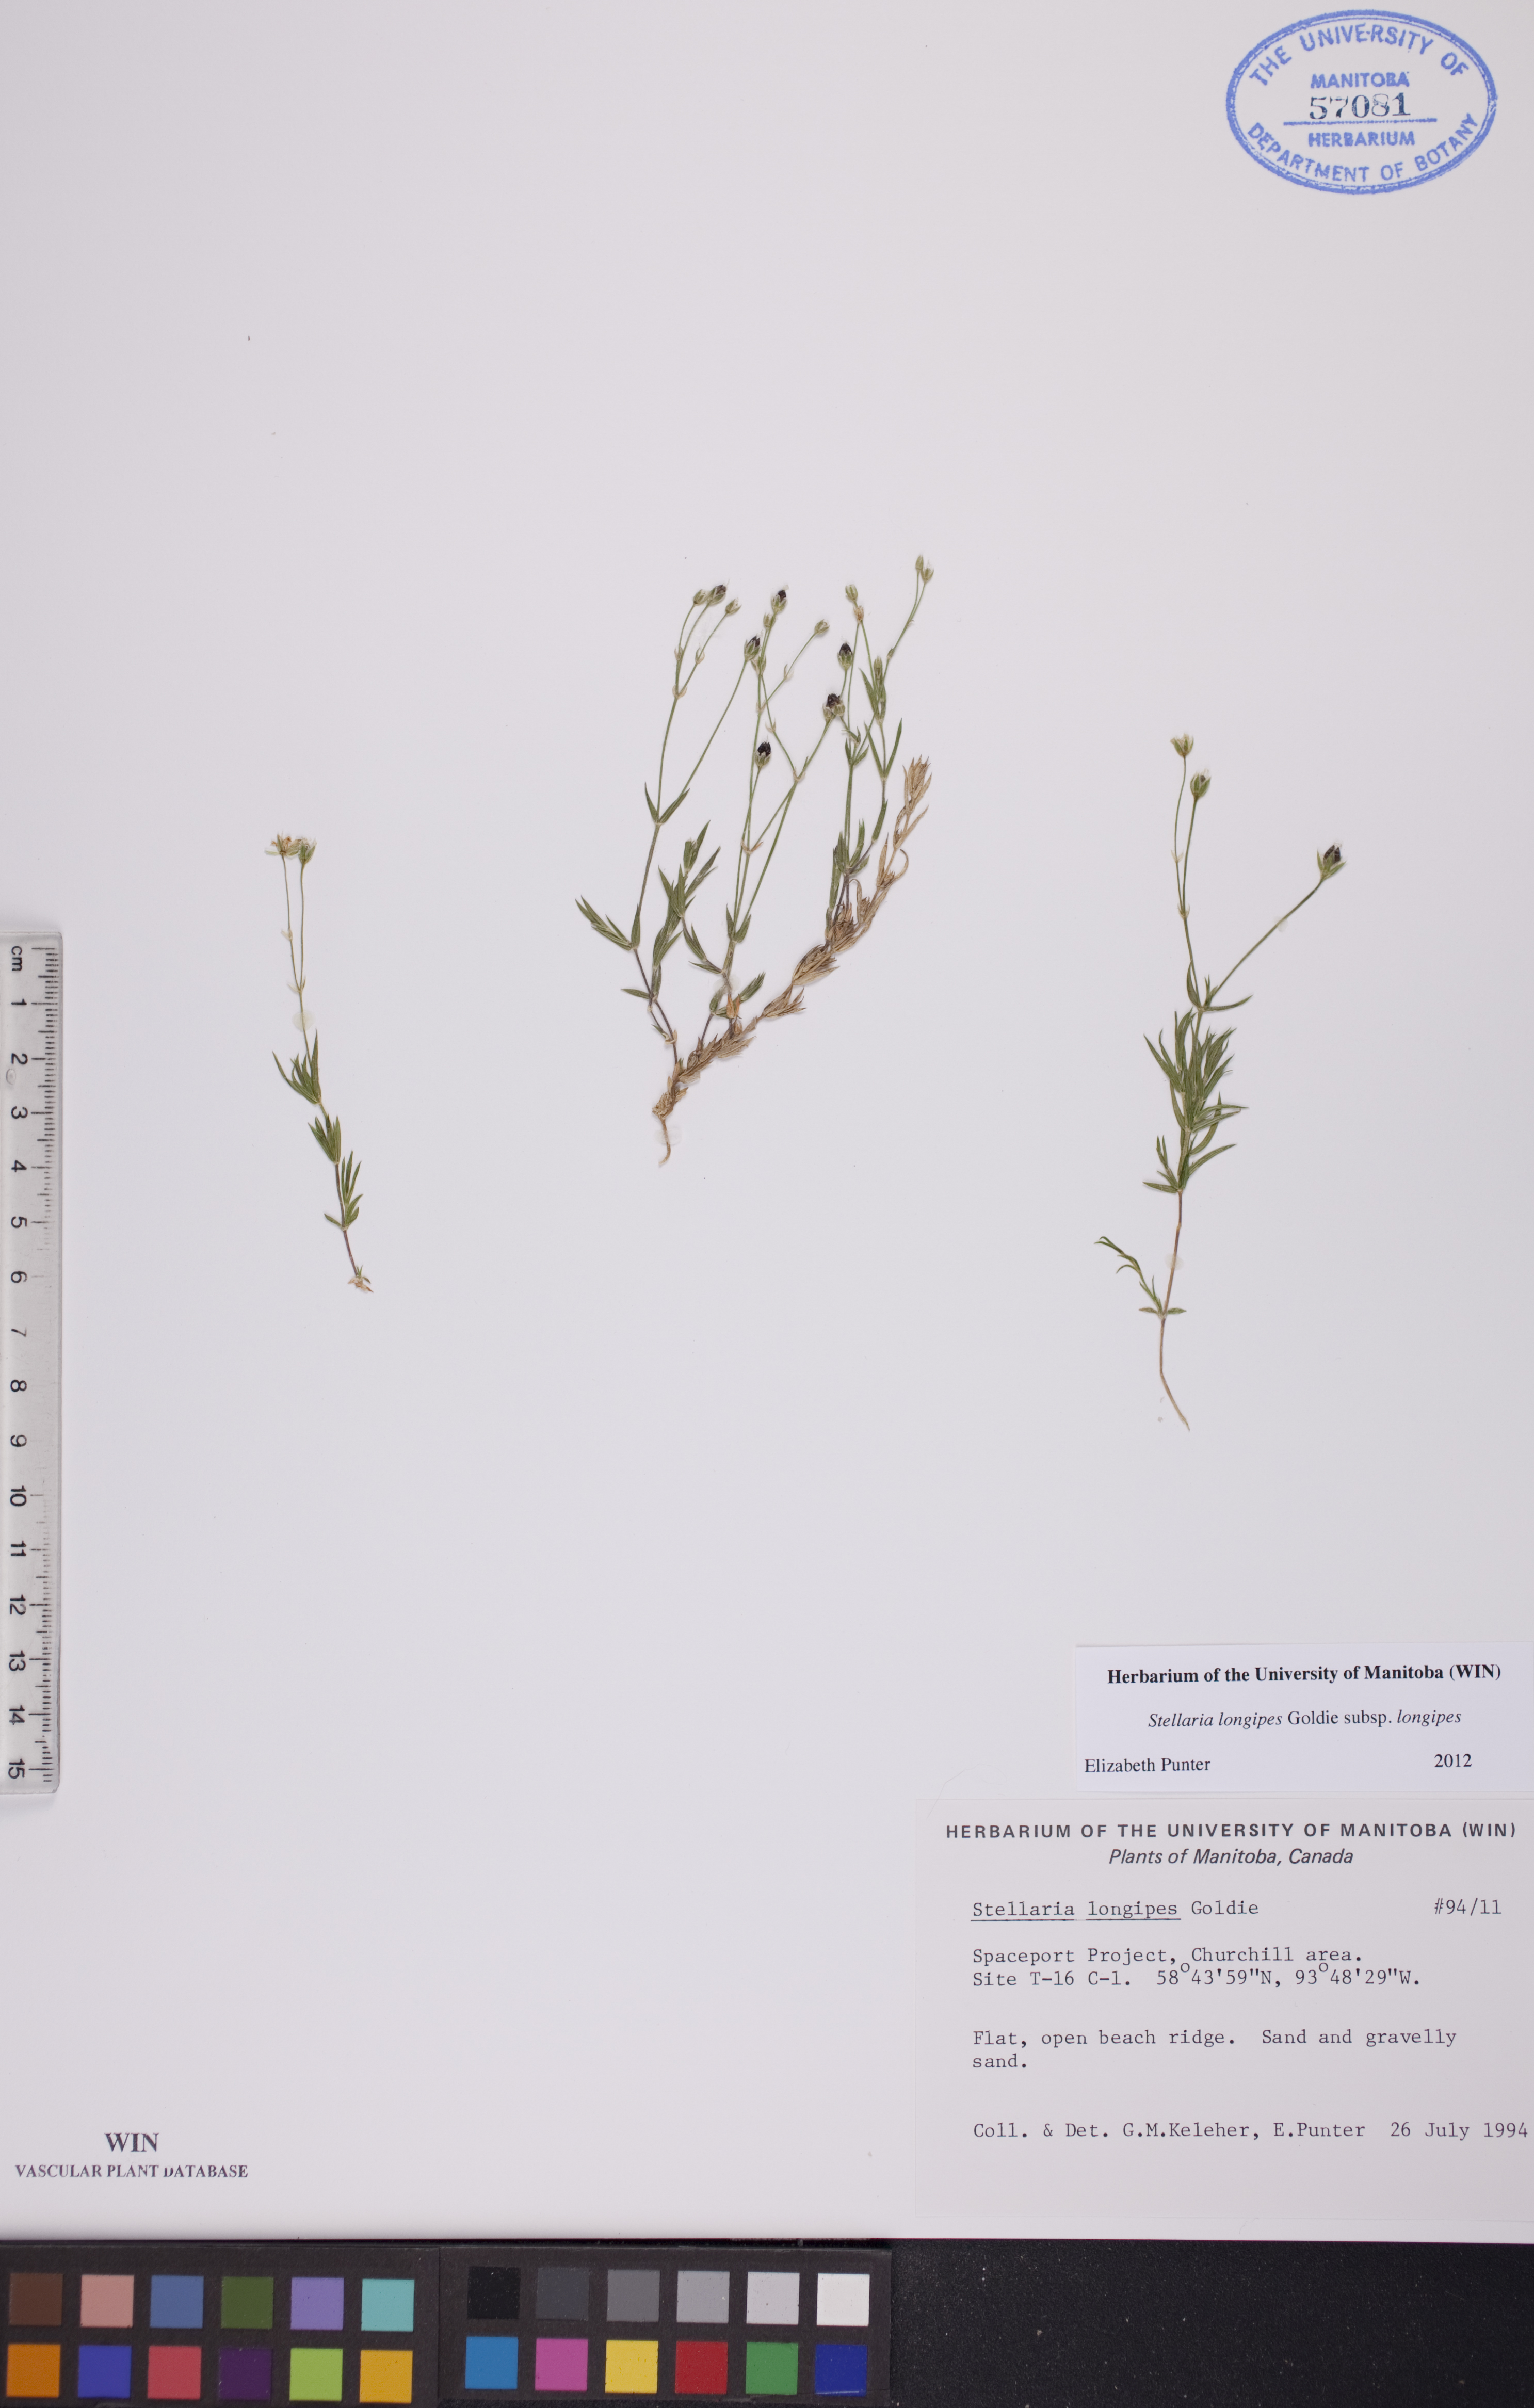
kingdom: Plantae
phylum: Tracheophyta
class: Magnoliopsida
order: Caryophyllales
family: Caryophyllaceae
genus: Stellaria
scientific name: Stellaria longipes
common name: Goldie's starwort
